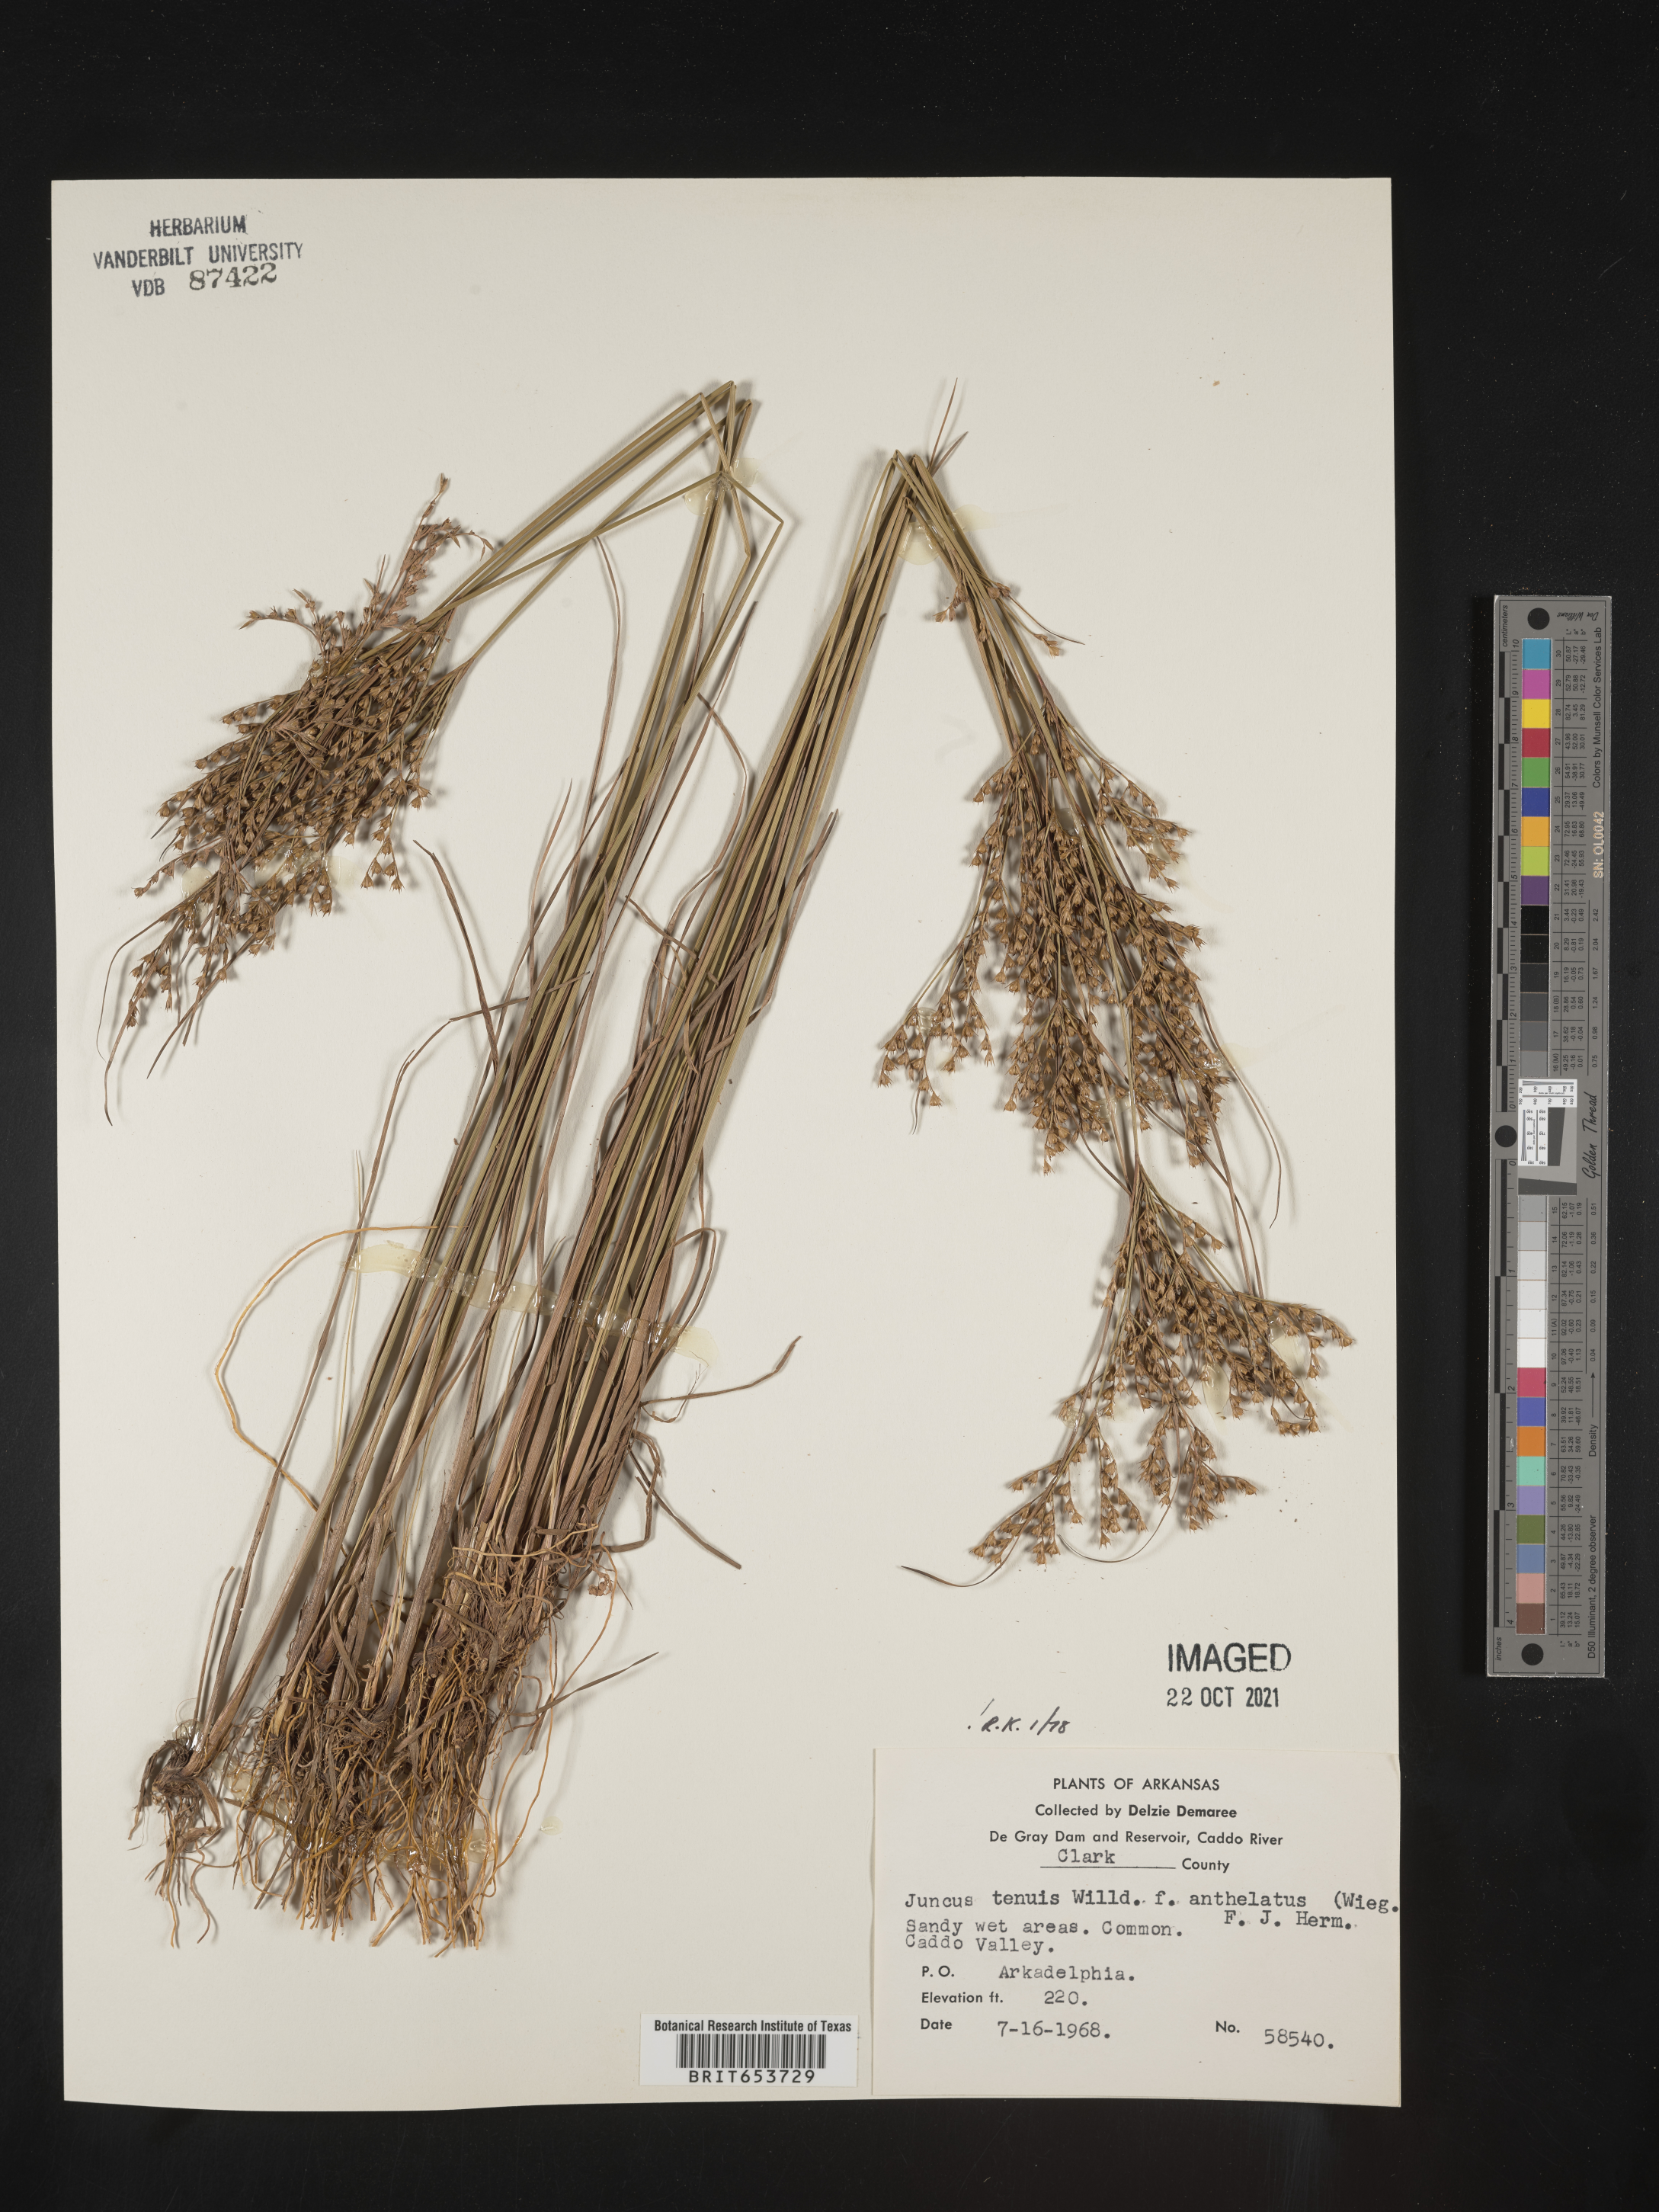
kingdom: Plantae
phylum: Tracheophyta
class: Liliopsida
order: Poales
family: Juncaceae
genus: Juncus
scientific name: Juncus tenuis
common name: Slender rush
